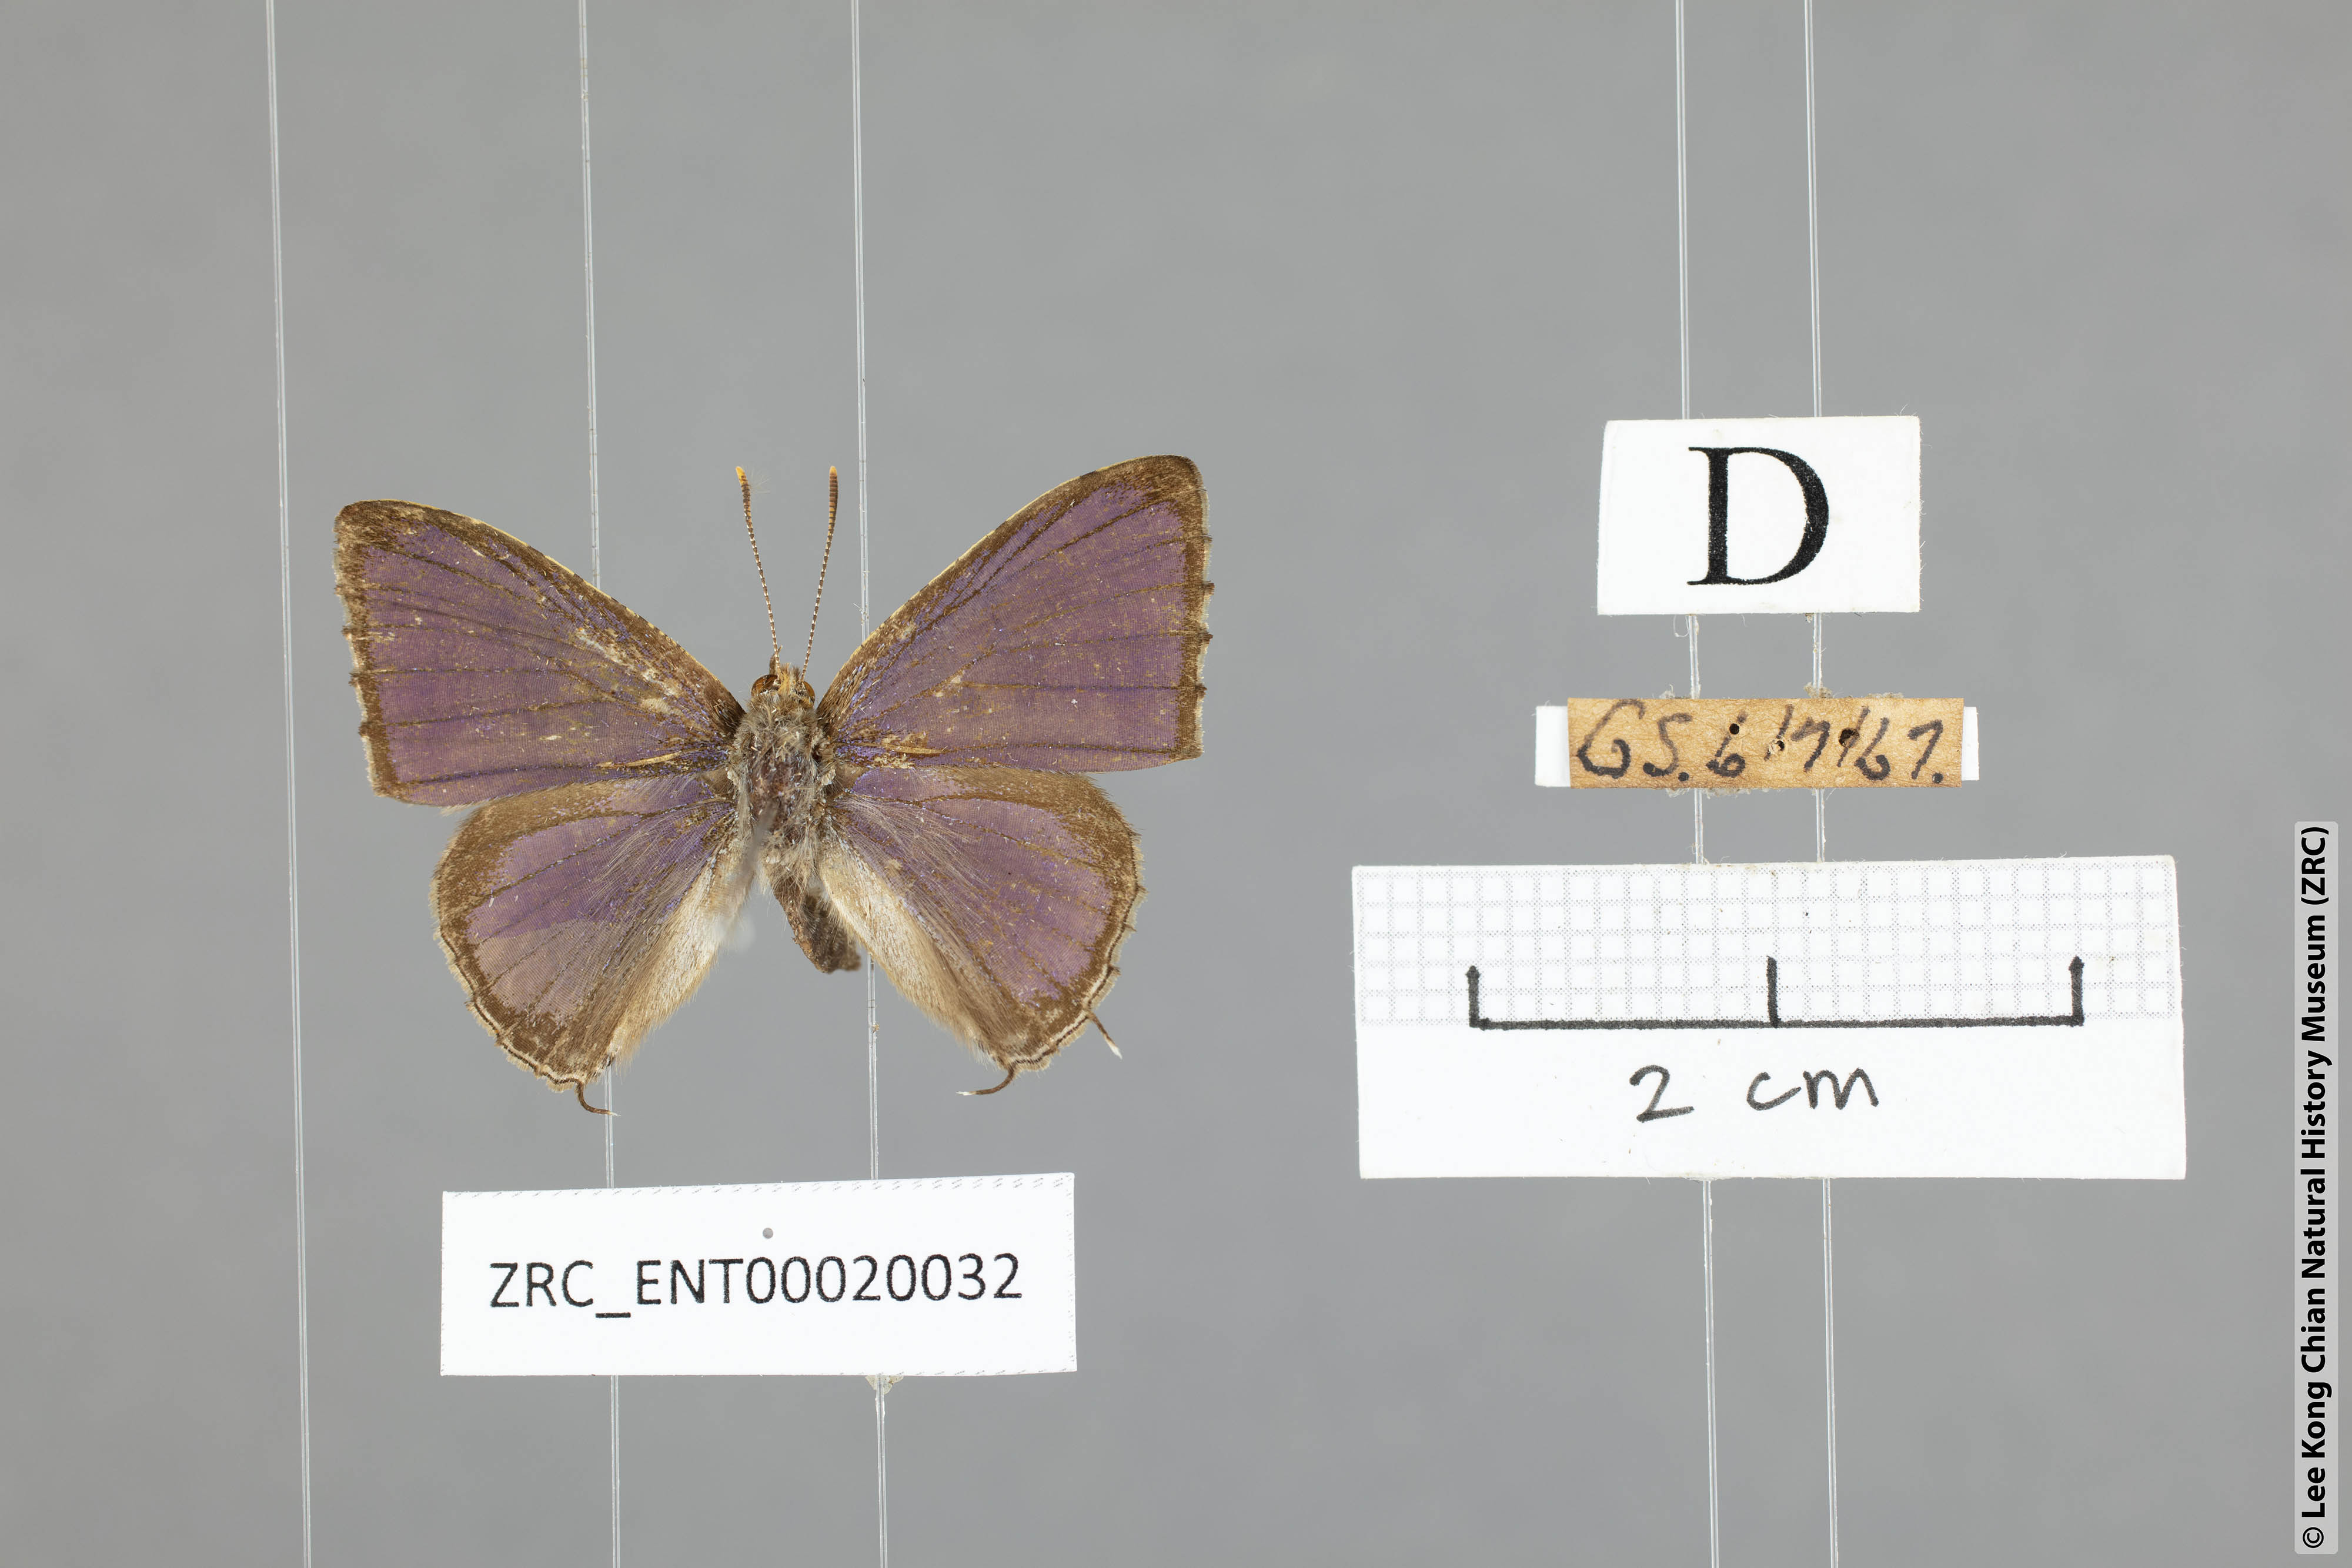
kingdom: Animalia
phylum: Arthropoda
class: Insecta
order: Lepidoptera
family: Lycaenidae
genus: Catapaecilma
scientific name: Catapaecilma major
